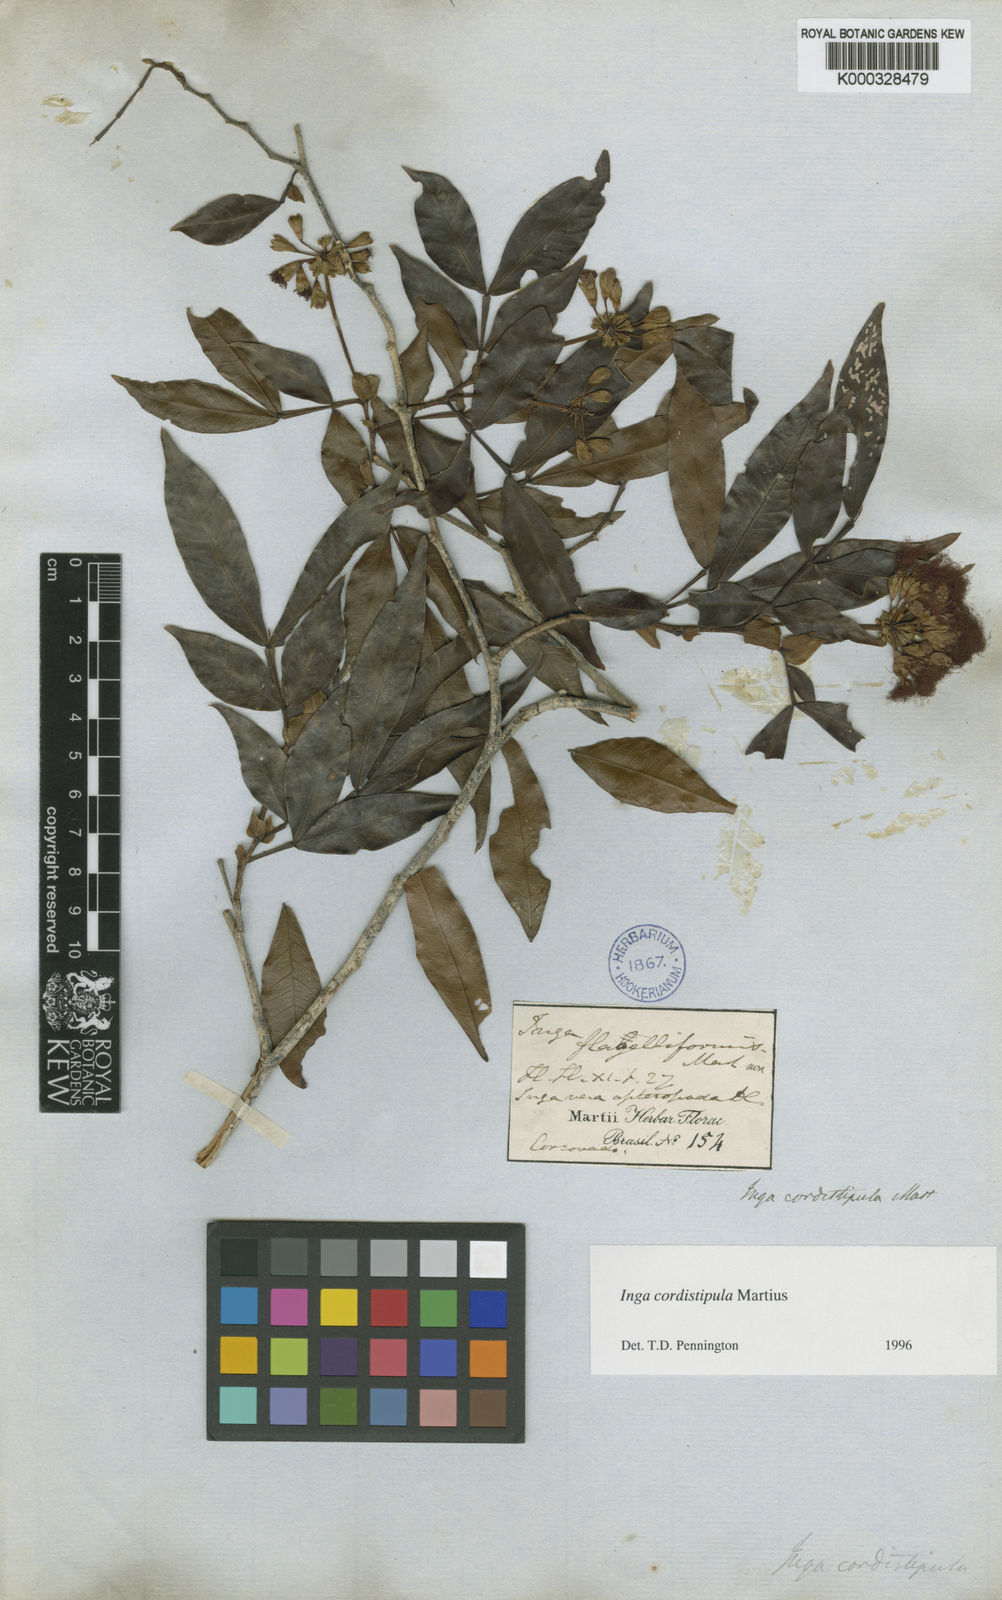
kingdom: Plantae
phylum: Tracheophyta
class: Magnoliopsida
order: Fabales
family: Fabaceae
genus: Inga
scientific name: Inga cordistipula
